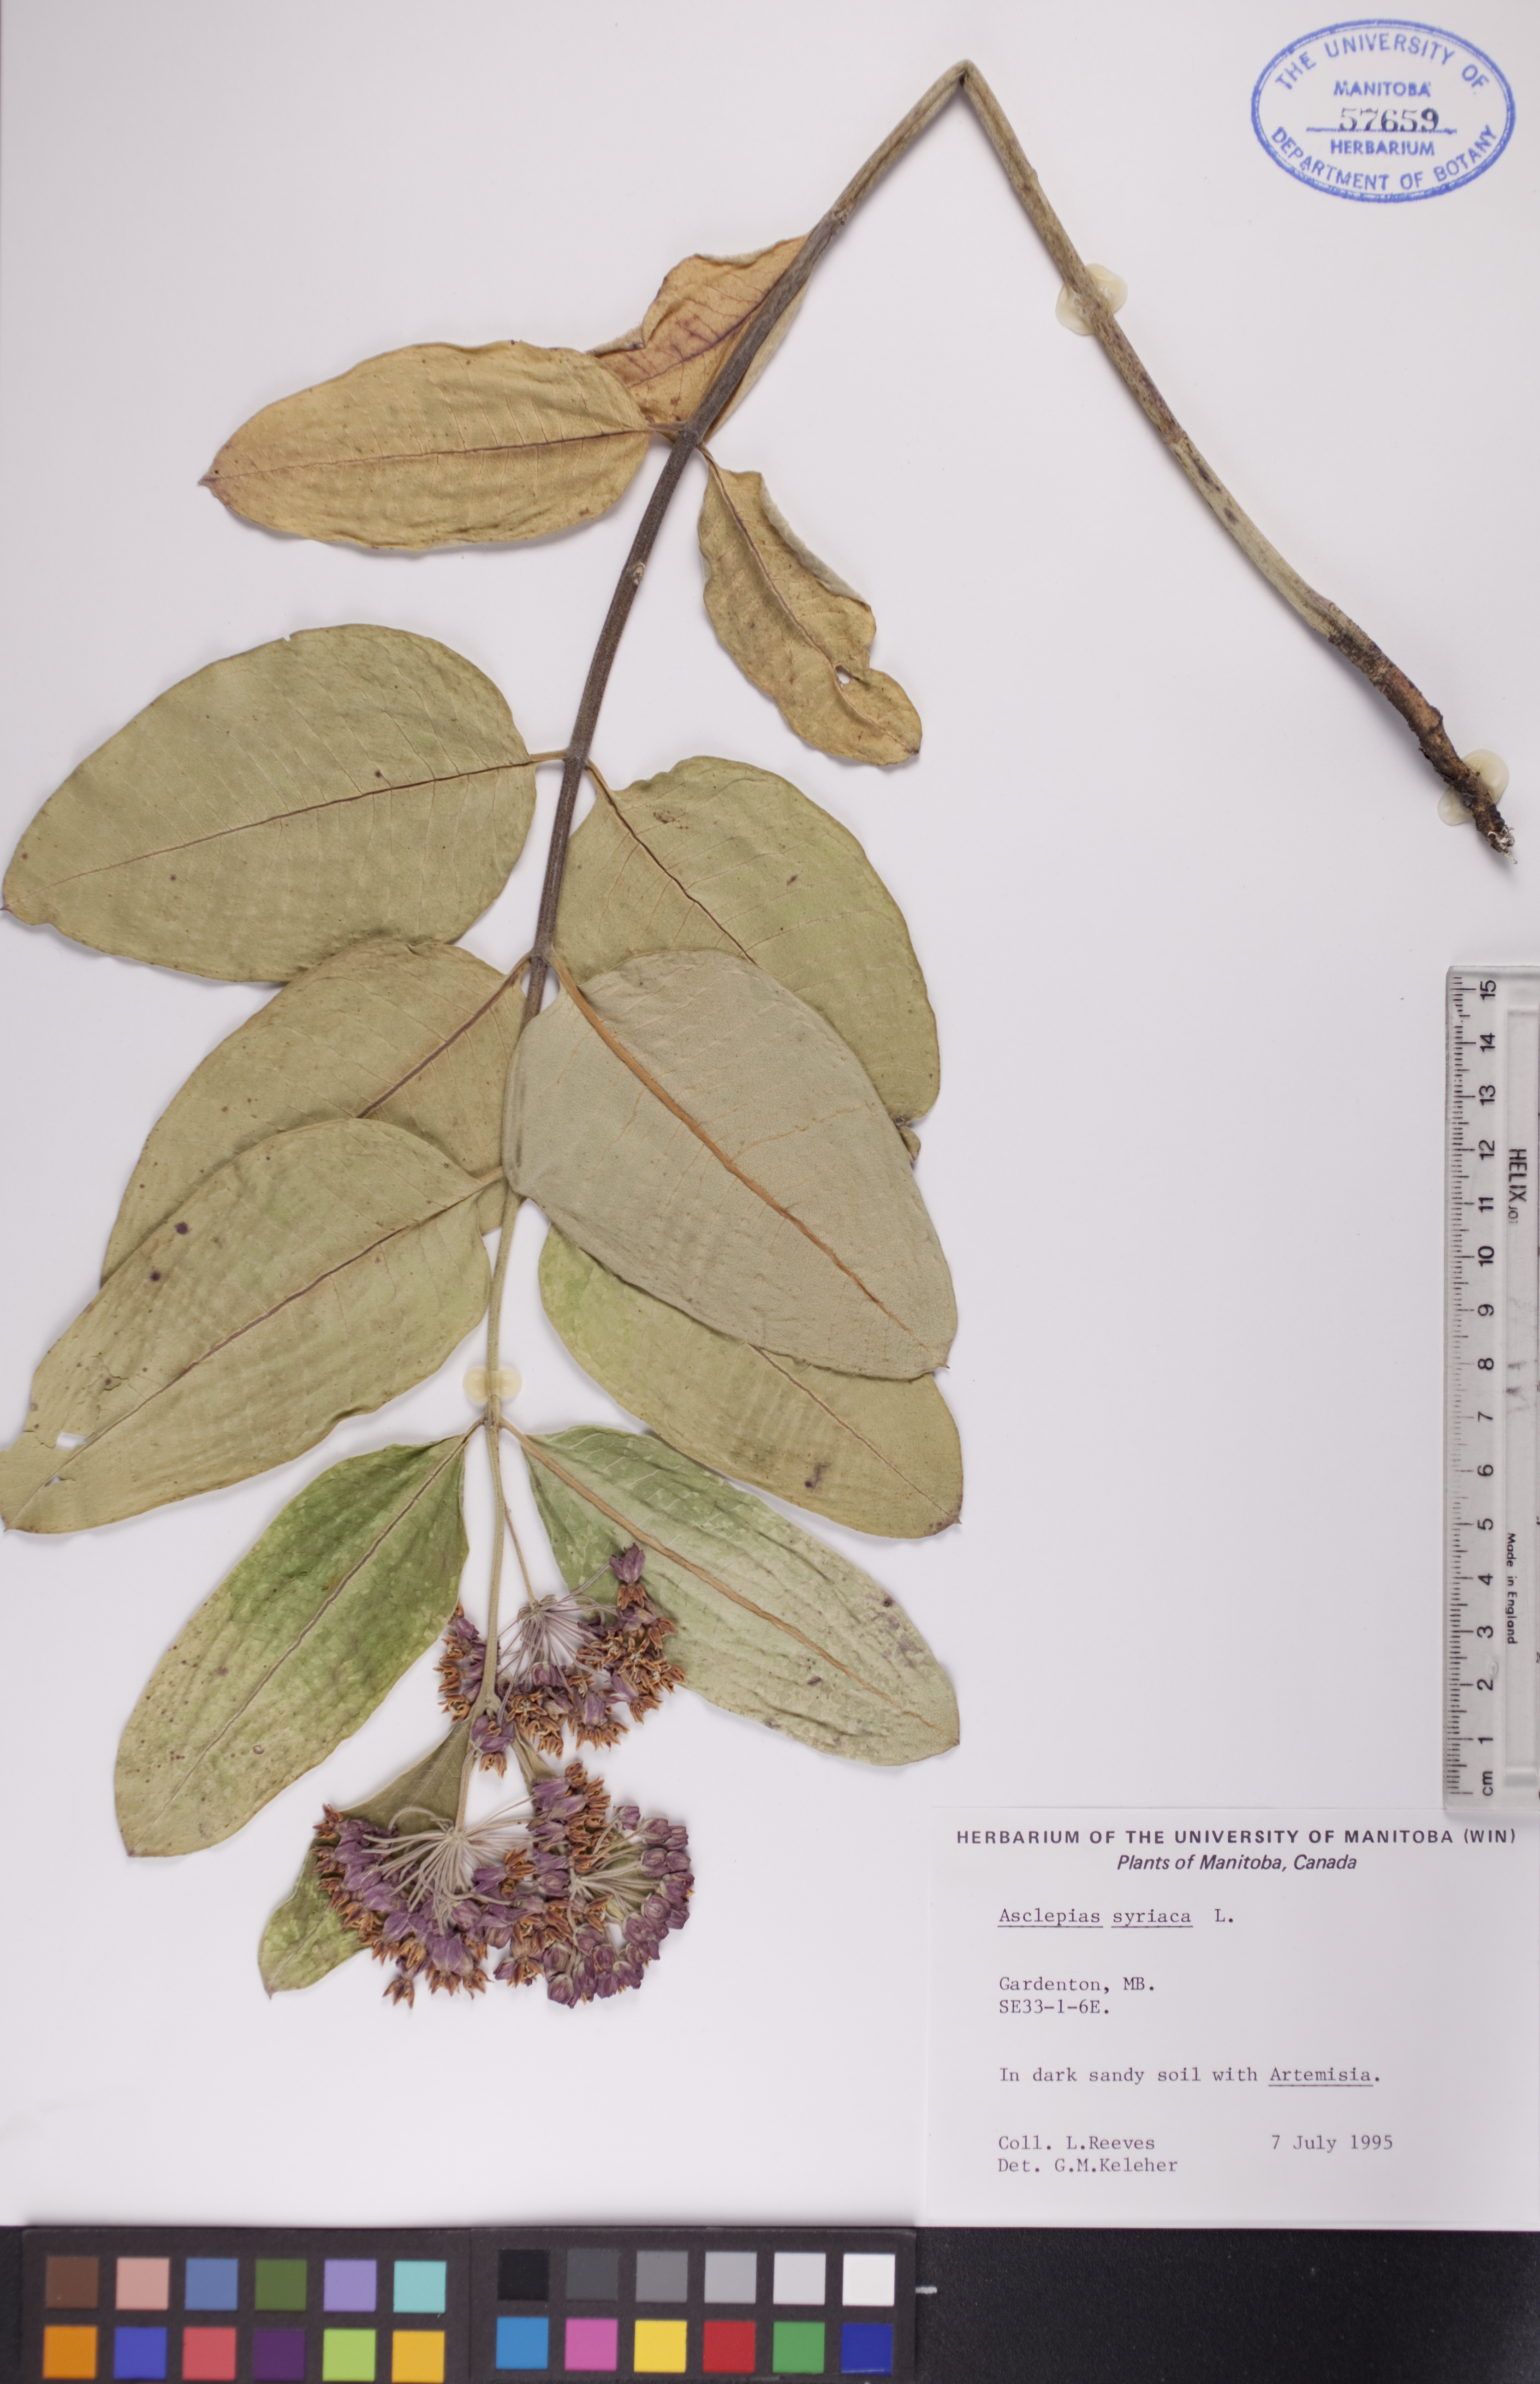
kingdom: Plantae
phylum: Tracheophyta
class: Magnoliopsida
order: Gentianales
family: Apocynaceae
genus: Asclepias
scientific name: Asclepias syriaca
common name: Common milkweed
